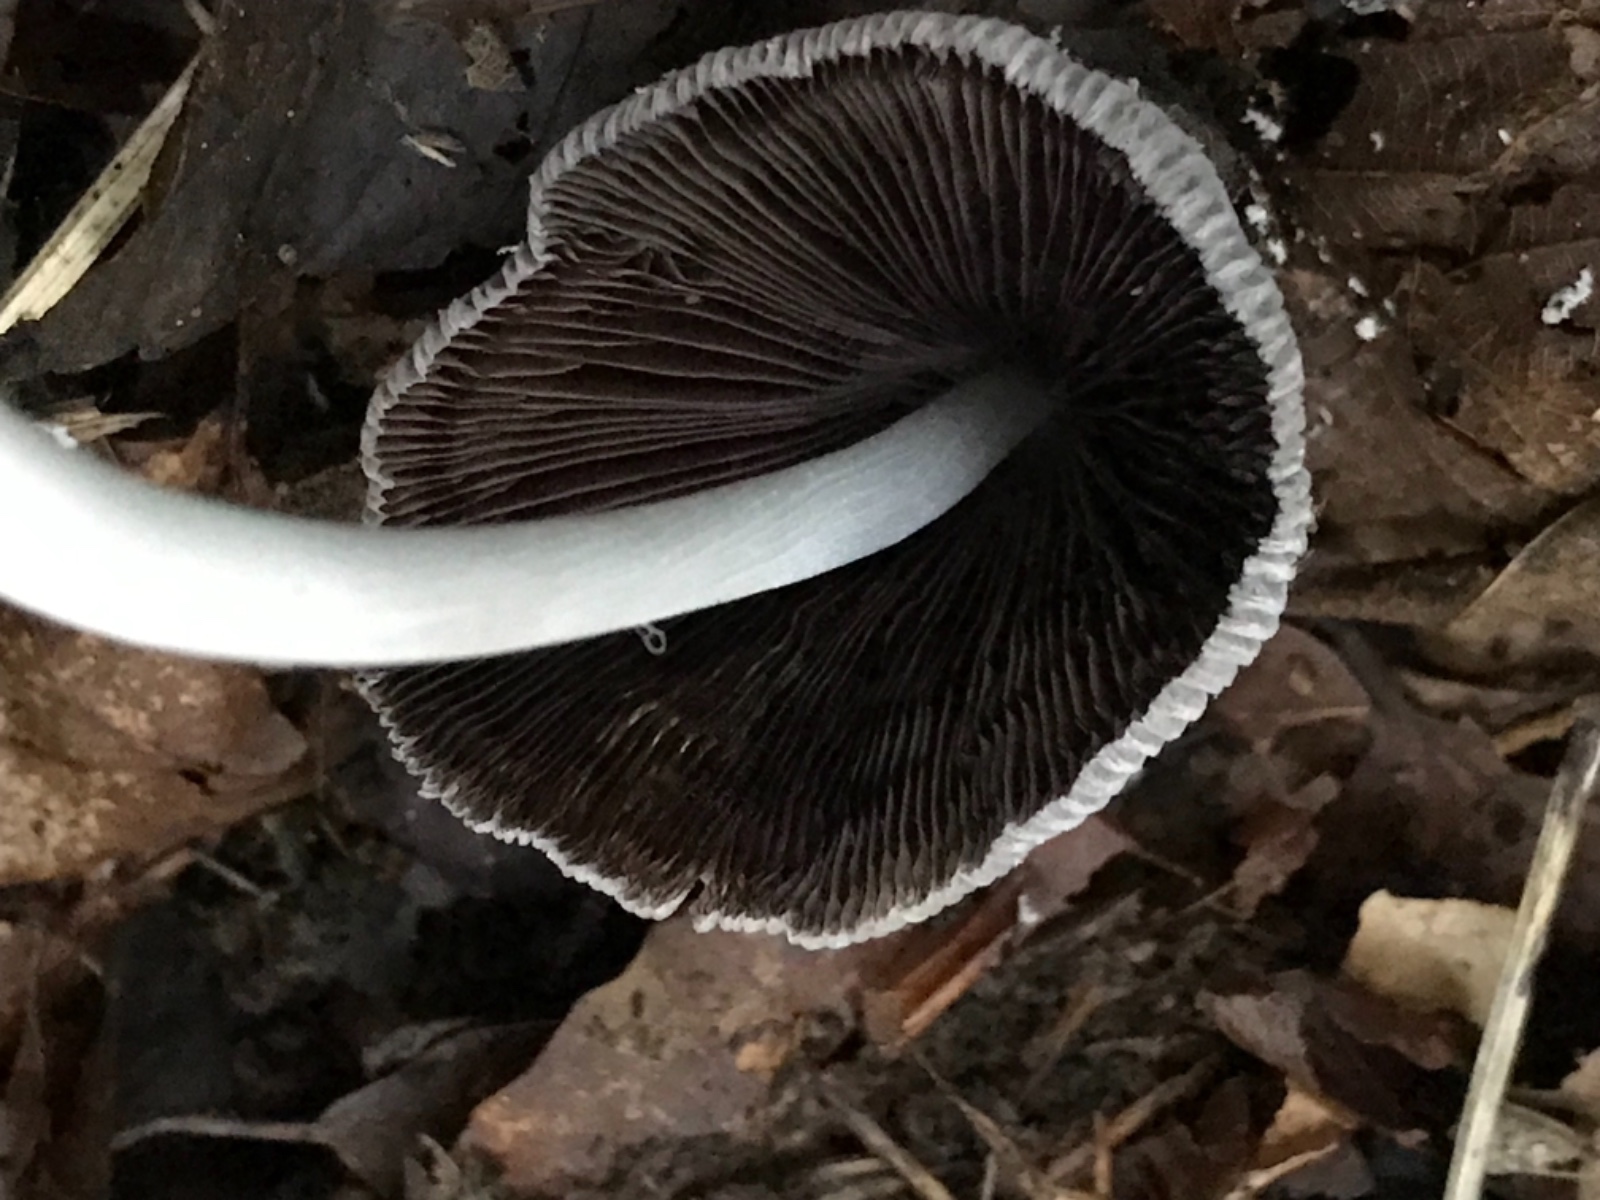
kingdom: Fungi
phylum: Basidiomycota
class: Agaricomycetes
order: Agaricales
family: Psathyrellaceae
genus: Coprinellus
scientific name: Coprinellus
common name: blækhat
